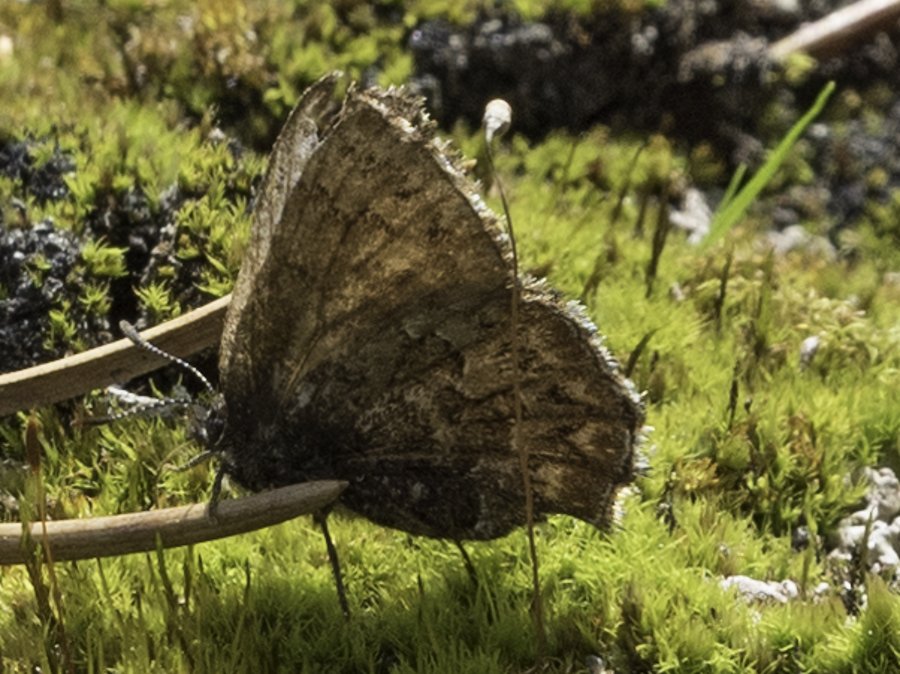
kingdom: Animalia
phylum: Arthropoda
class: Insecta
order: Lepidoptera
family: Lycaenidae
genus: Incisalia
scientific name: Incisalia eryphon
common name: Western Pine Elfin
